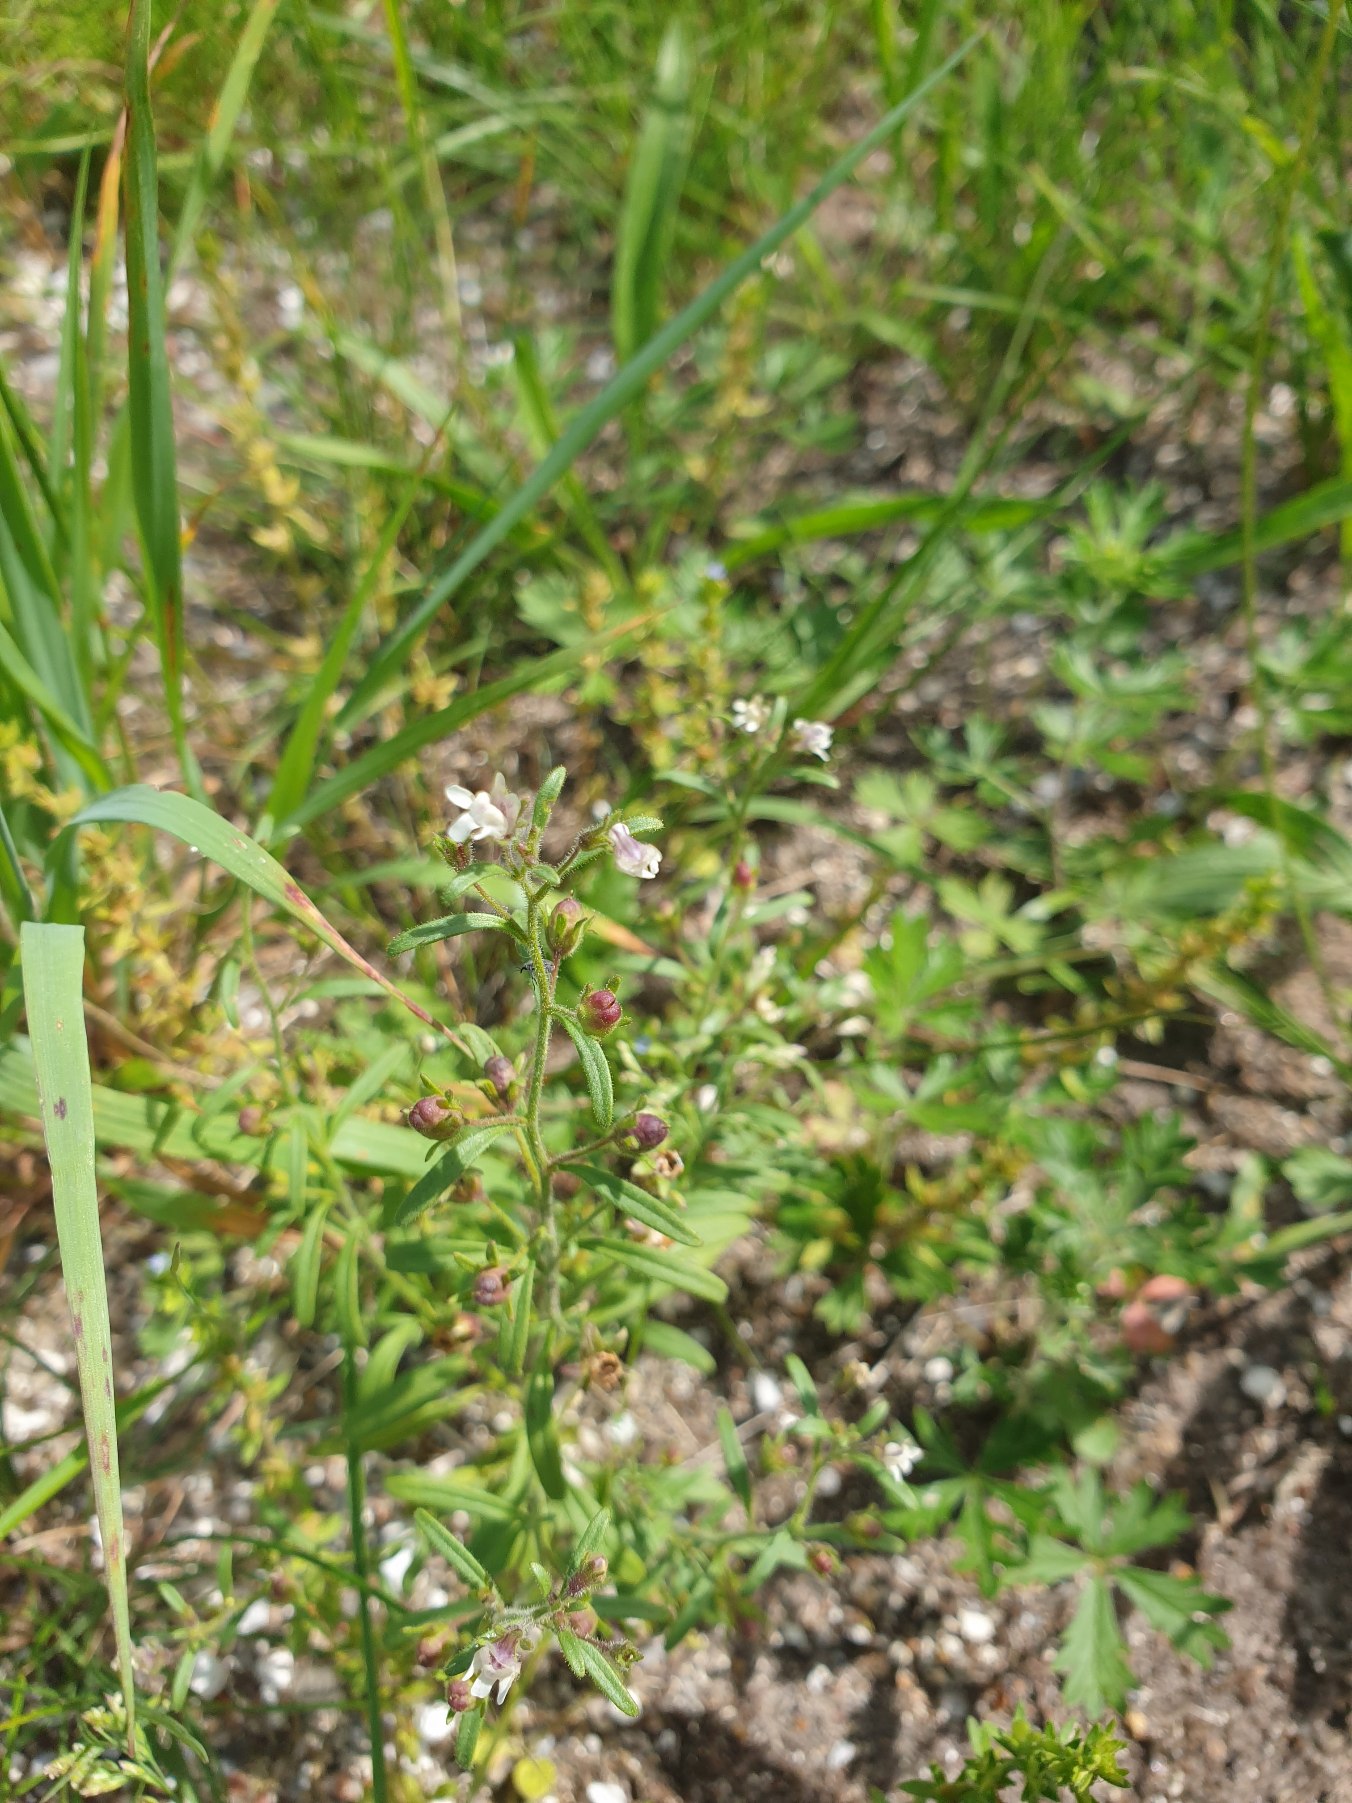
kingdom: Plantae
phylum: Tracheophyta
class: Magnoliopsida
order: Lamiales
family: Plantaginaceae
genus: Chaenorhinum
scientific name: Chaenorhinum minus
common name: Liden torskemund
